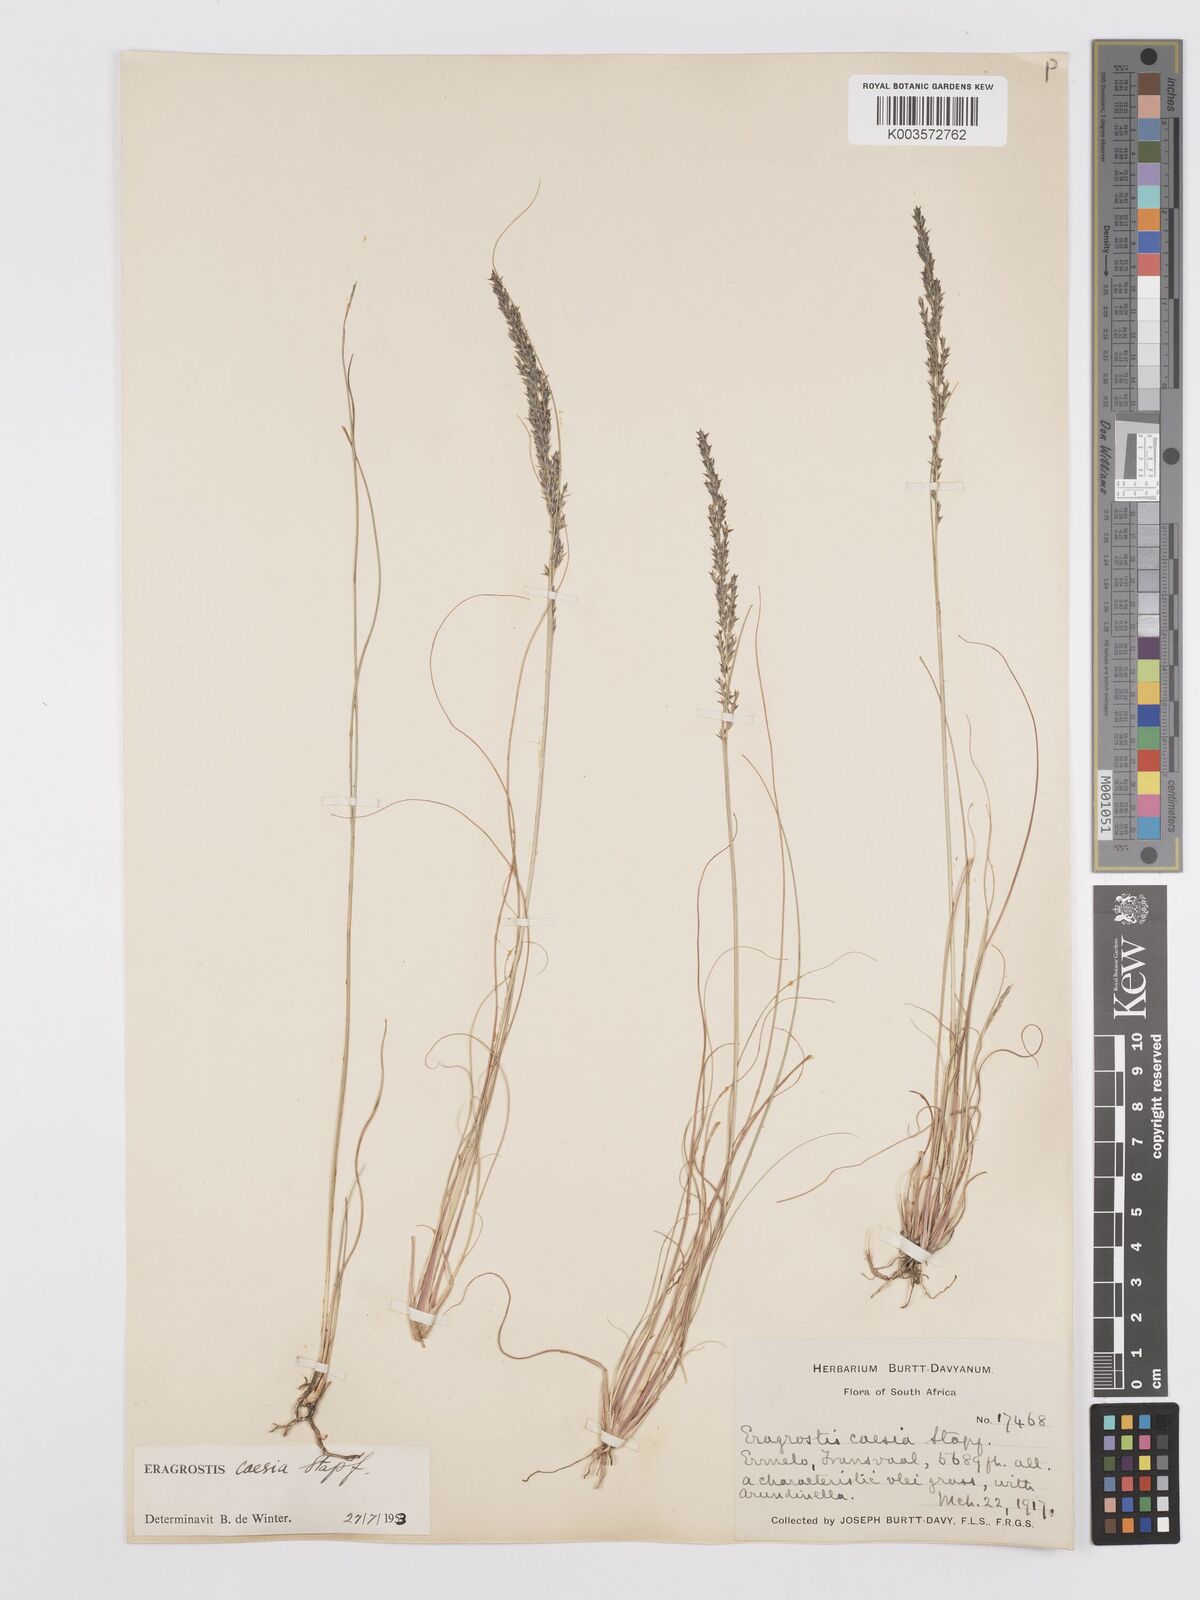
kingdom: Plantae
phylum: Tracheophyta
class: Liliopsida
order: Poales
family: Poaceae
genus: Eragrostis
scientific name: Eragrostis caesia
